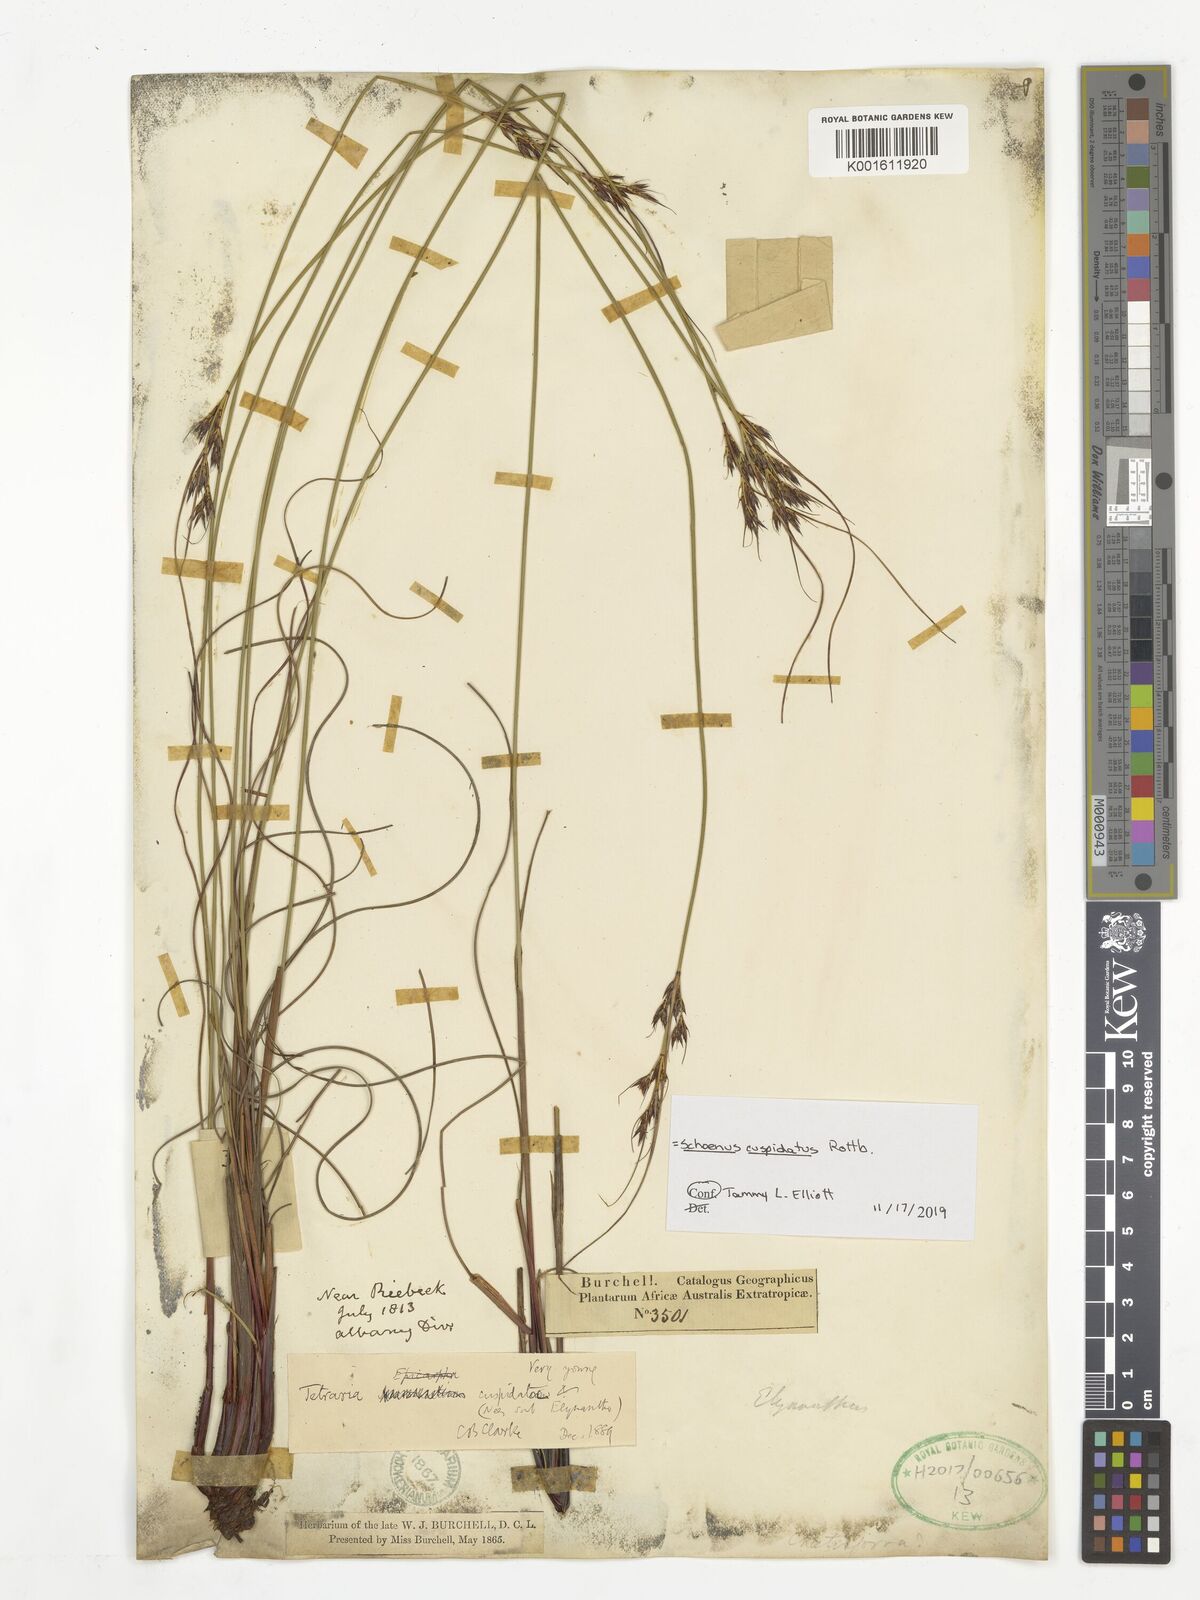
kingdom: Plantae
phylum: Tracheophyta
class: Liliopsida
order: Poales
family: Cyperaceae
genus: Schoenus
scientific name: Schoenus cuspidatus
